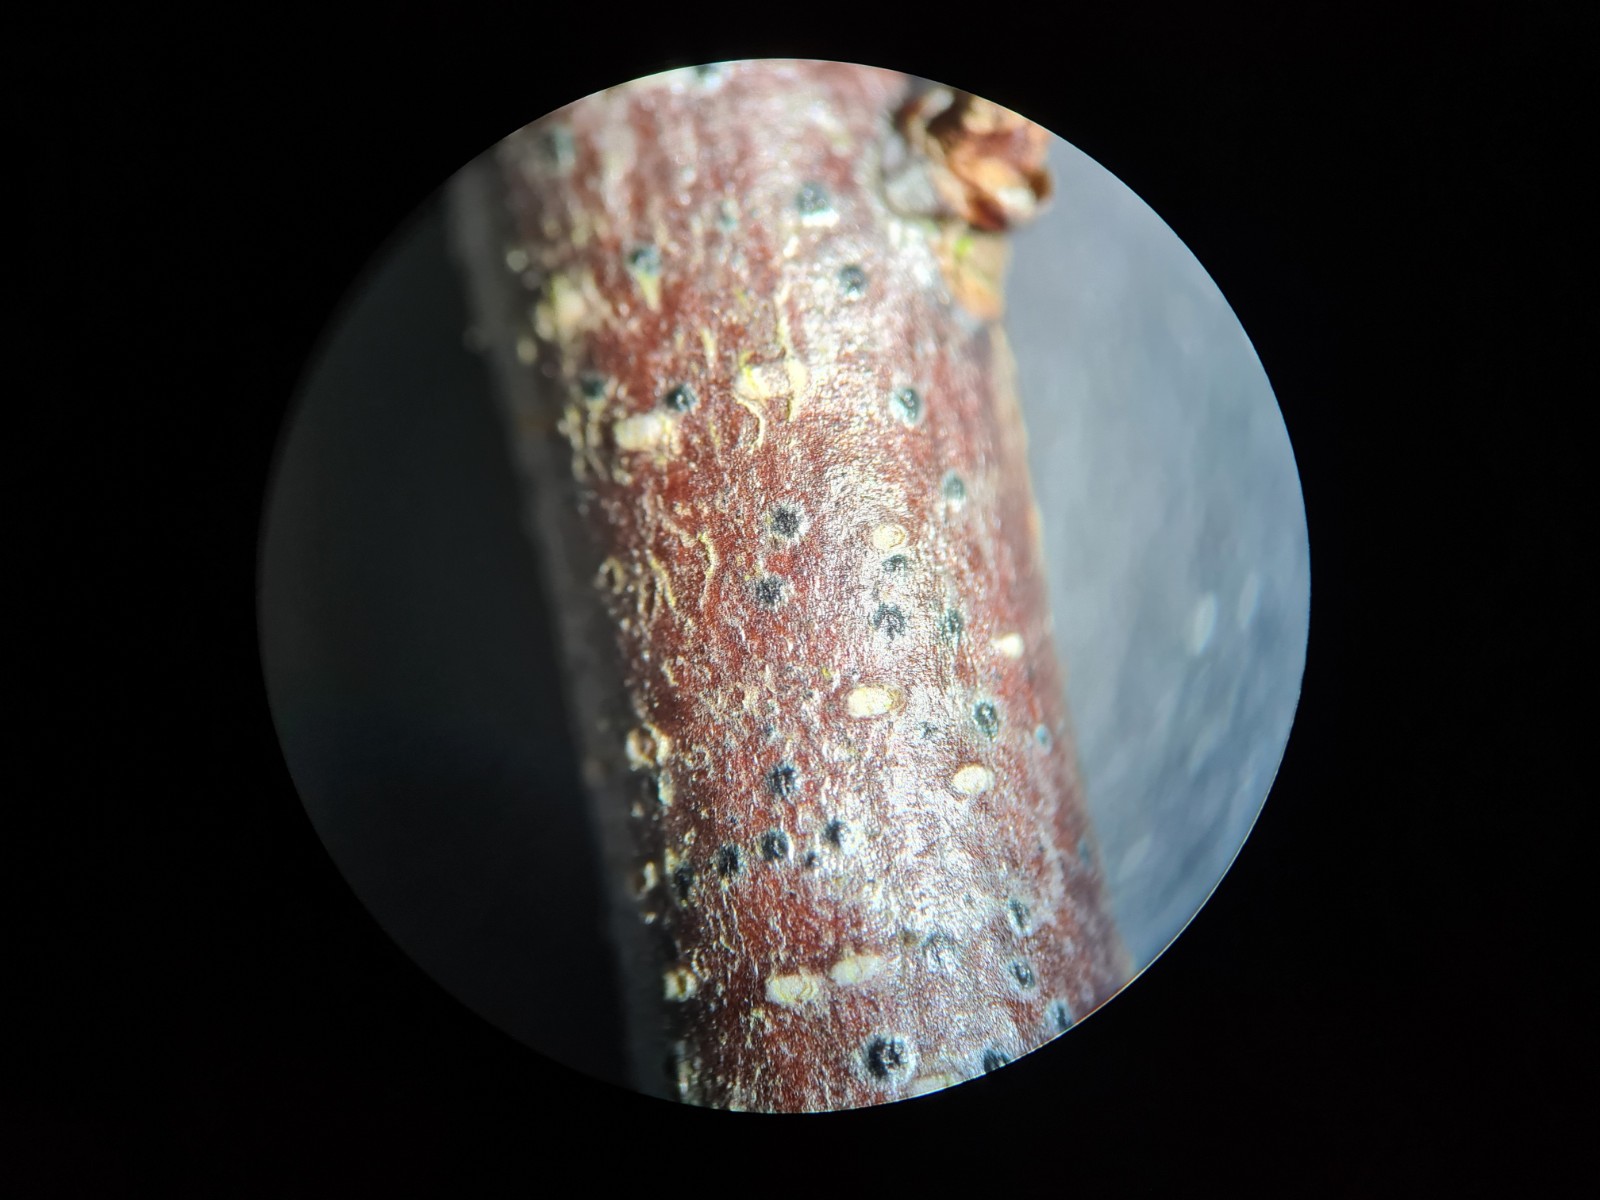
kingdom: Fungi
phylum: Ascomycota
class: Dothideomycetes
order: Dothideales
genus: Mycoglaena
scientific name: Mycoglaena myricae
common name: liden porsprik
